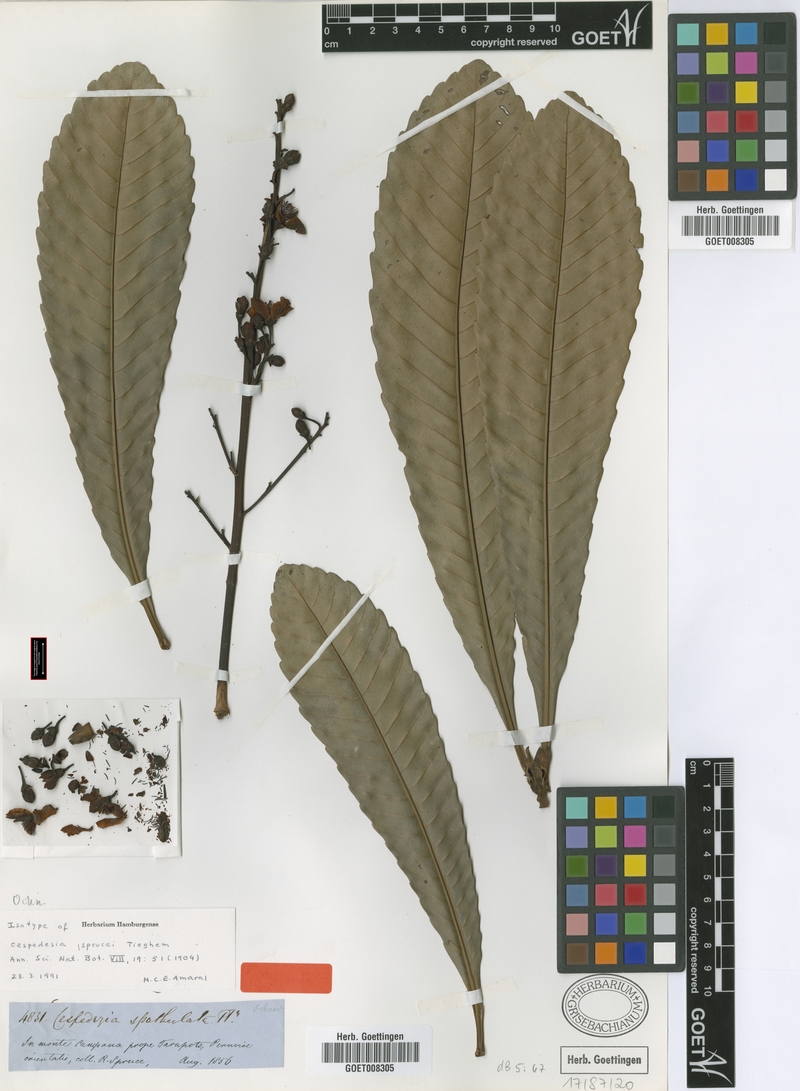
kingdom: Plantae
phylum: Tracheophyta
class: Magnoliopsida
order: Malpighiales
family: Ochnaceae
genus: Cespedesia
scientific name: Cespedesia spathulata
